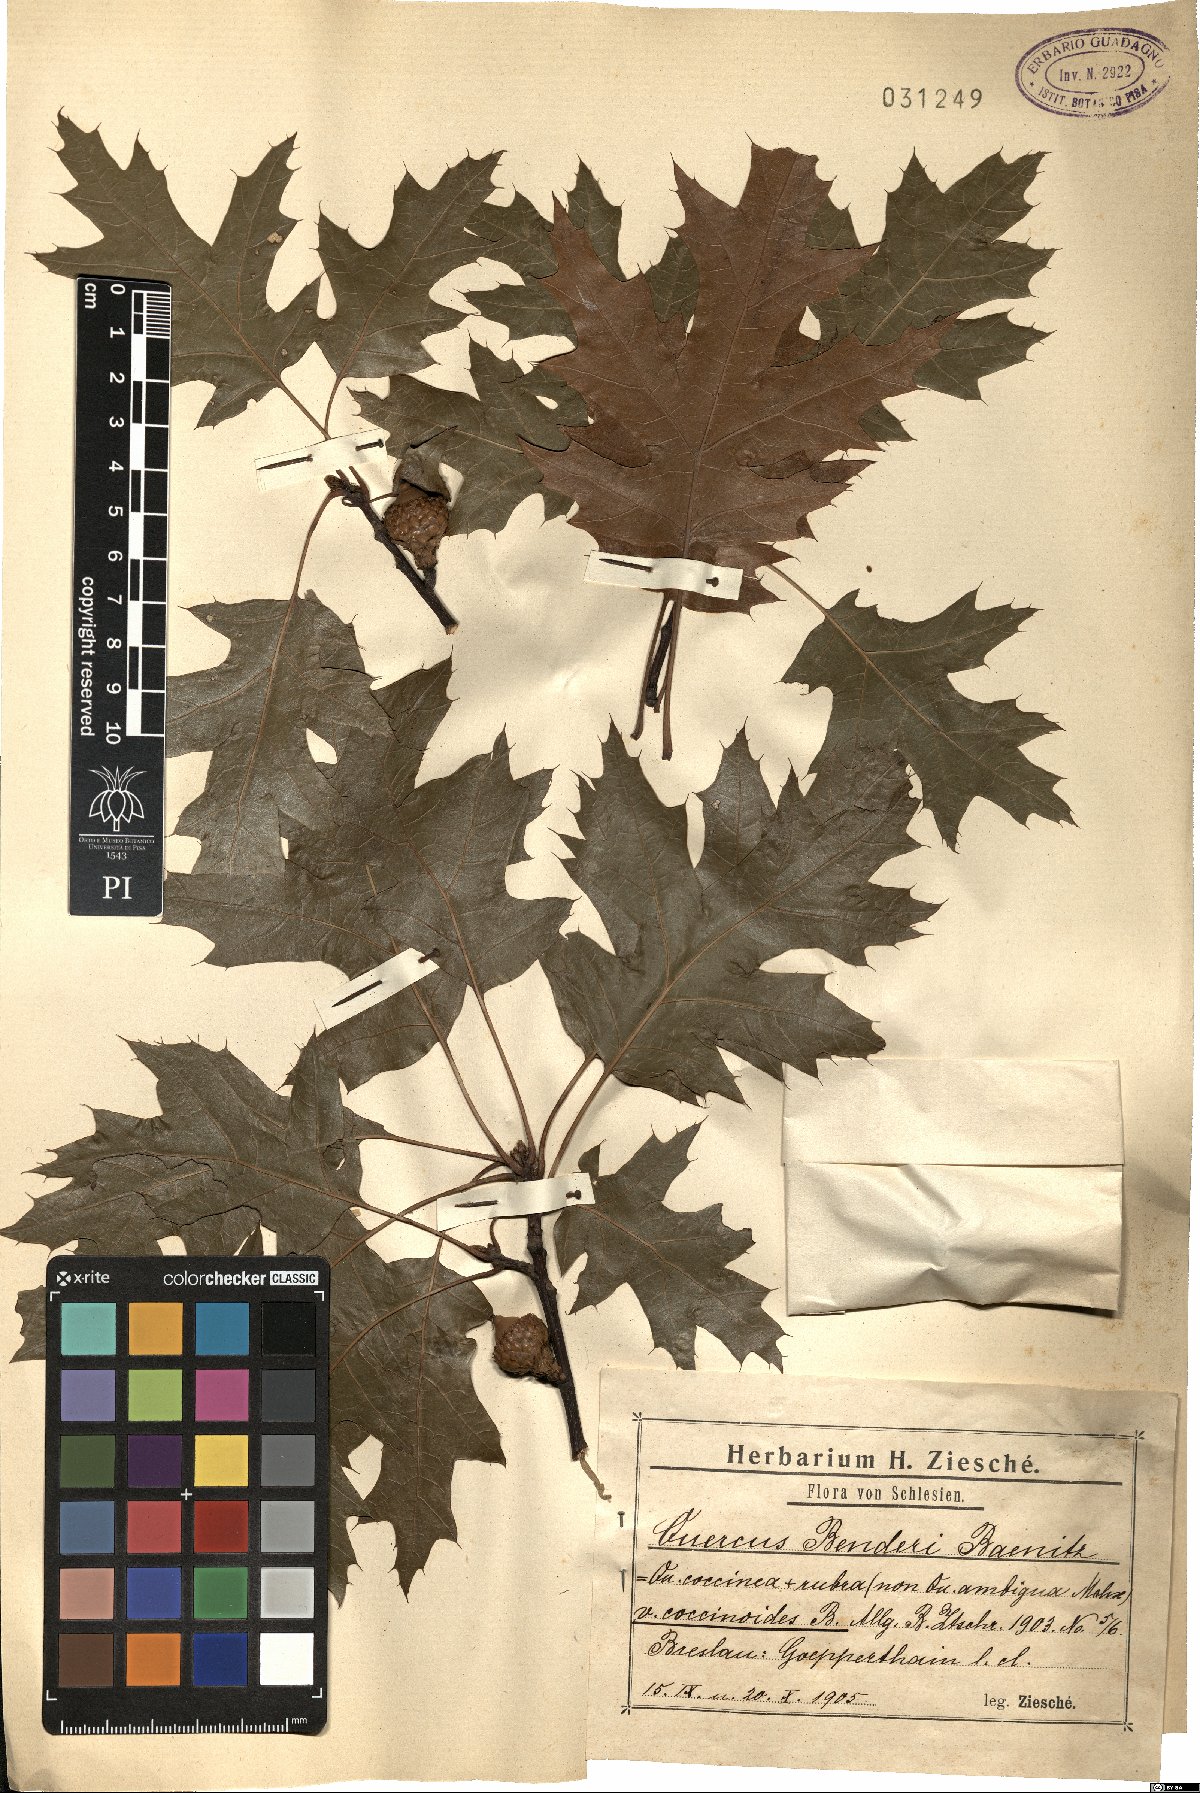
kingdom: Plantae
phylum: Tracheophyta
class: Magnoliopsida
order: Fagales
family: Fagaceae
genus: Quercus
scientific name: Quercus benderi
